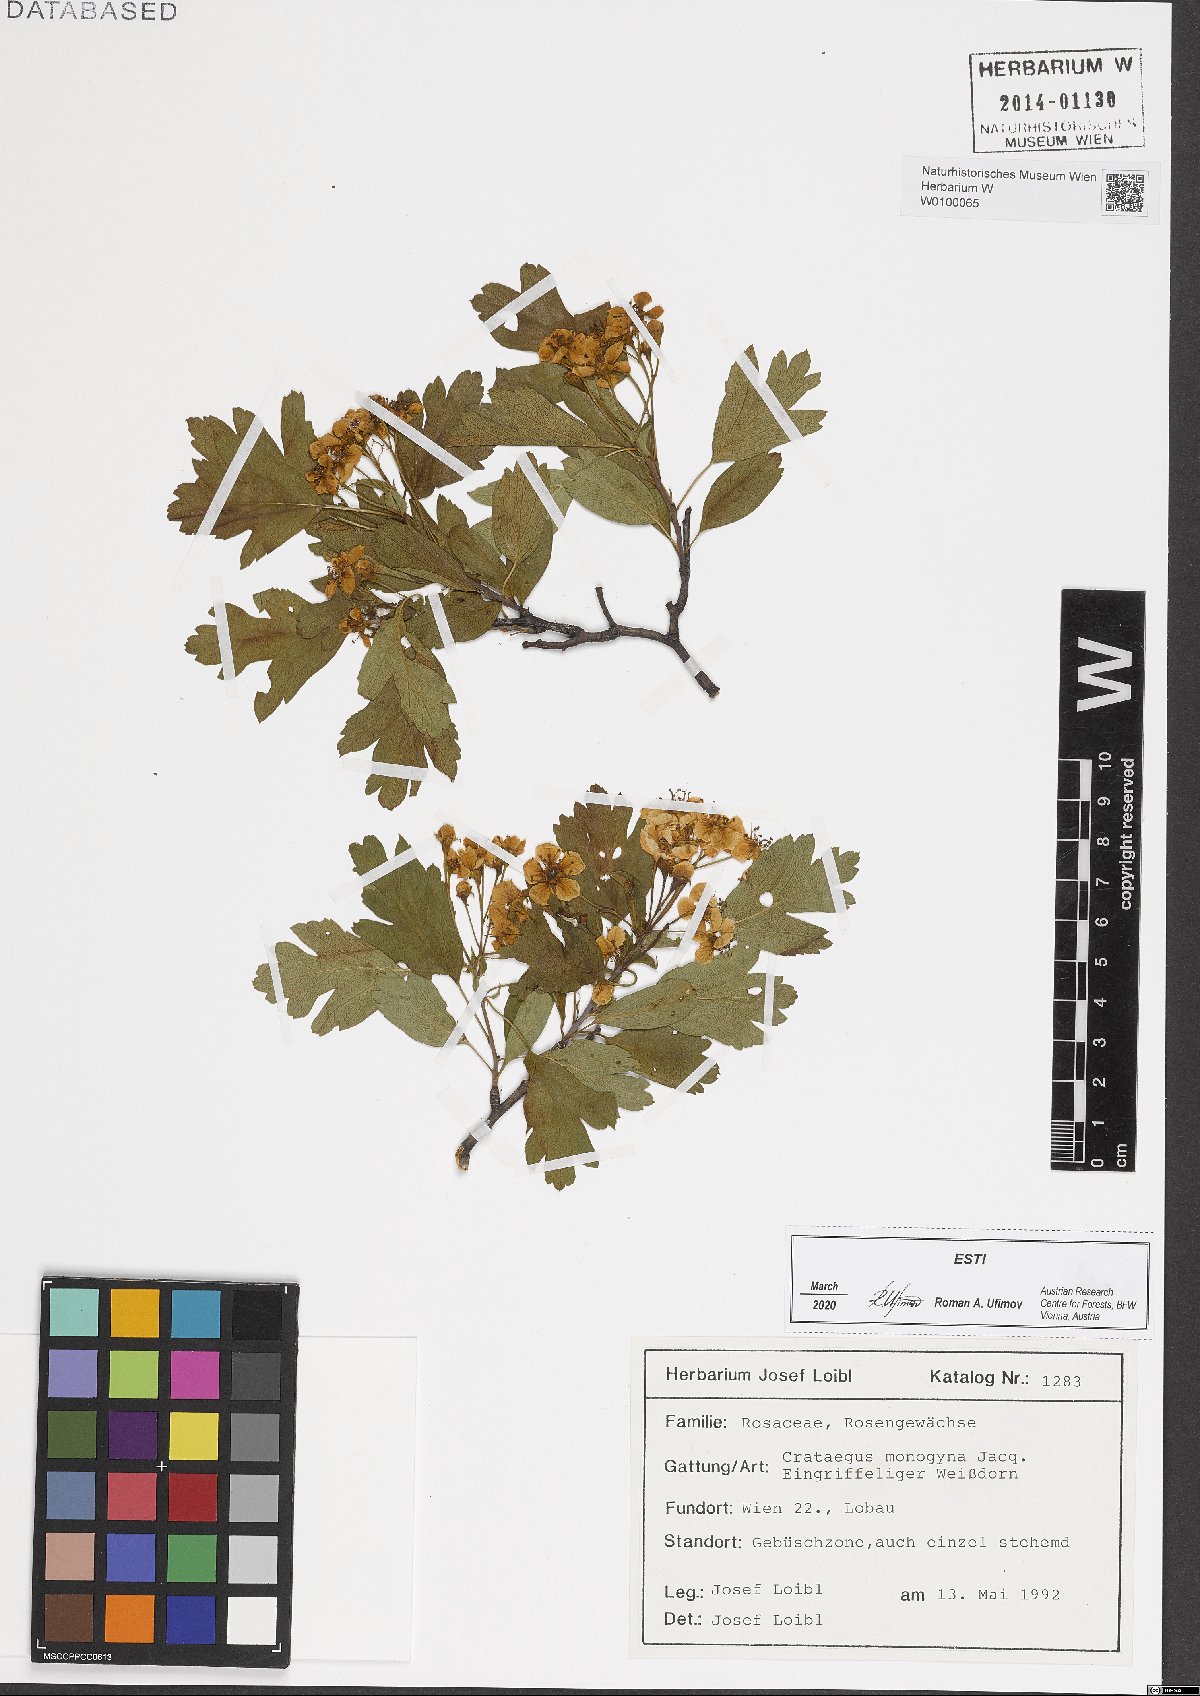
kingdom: Plantae
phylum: Tracheophyta
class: Magnoliopsida
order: Rosales
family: Rosaceae
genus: Crataegus
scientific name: Crataegus monogyna
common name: Hawthorn
